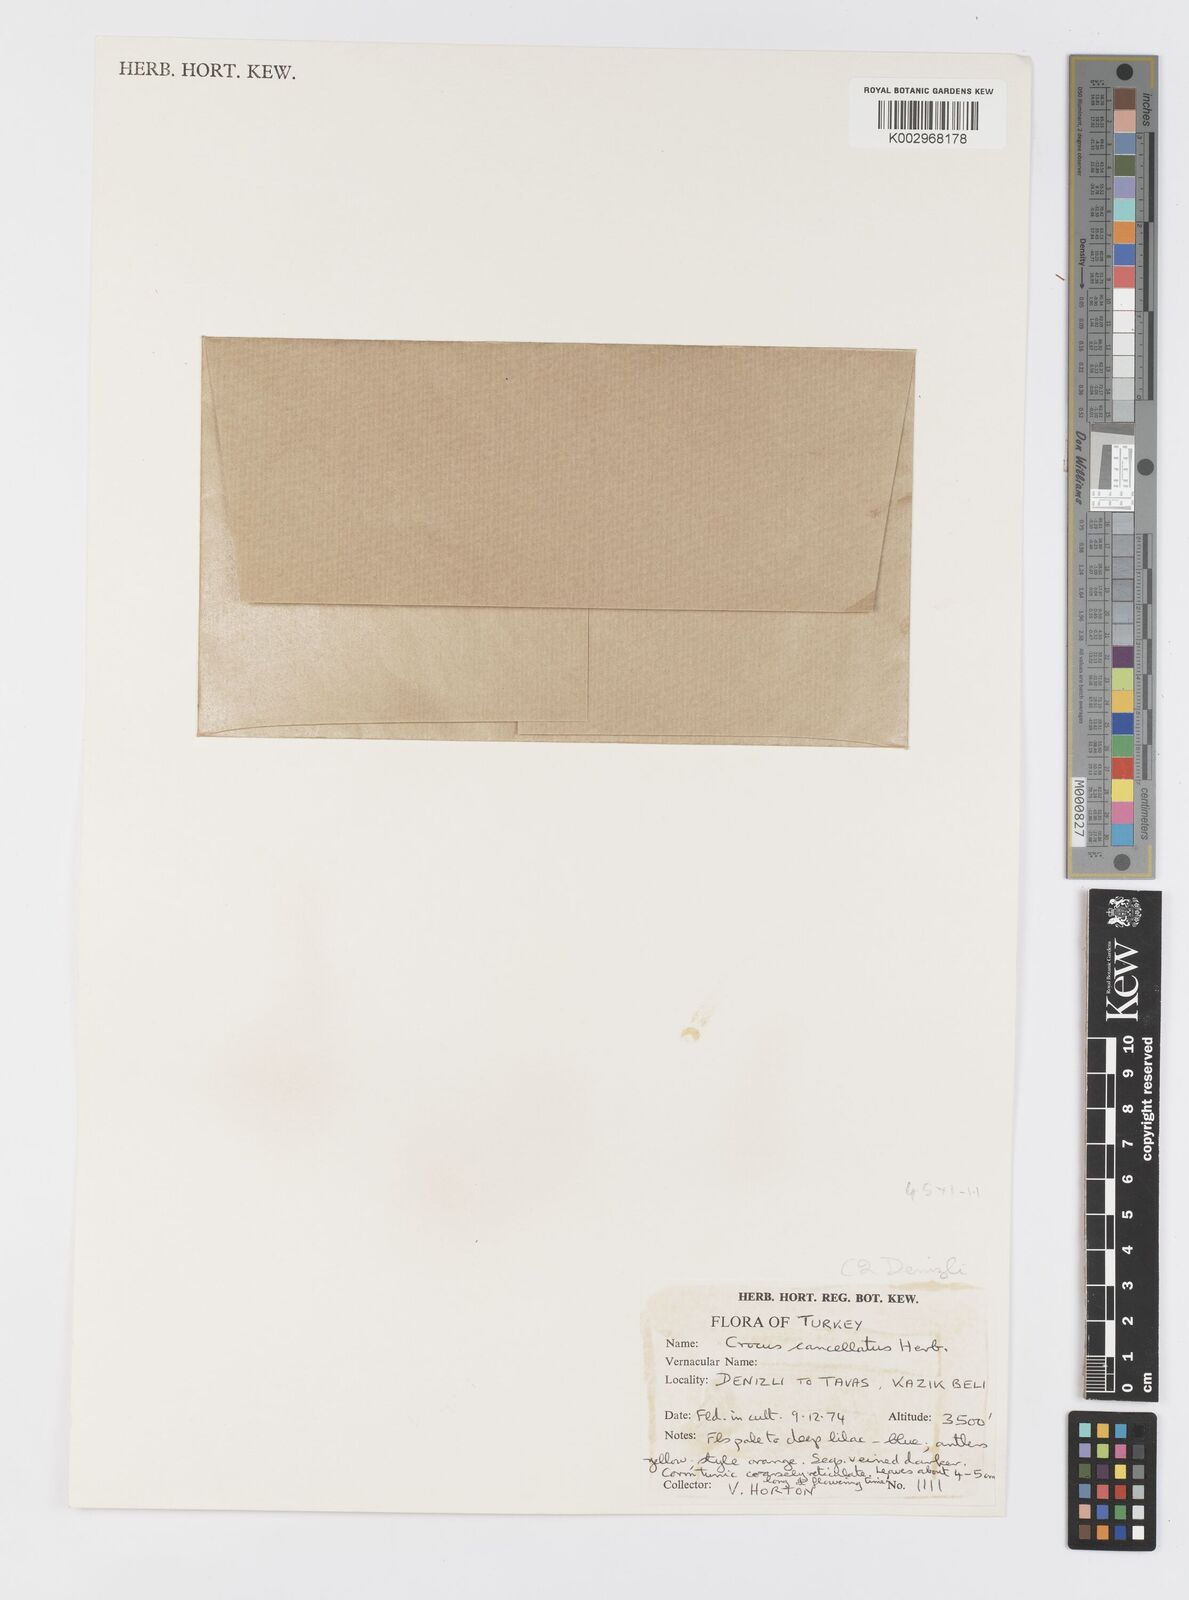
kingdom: Plantae
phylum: Tracheophyta
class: Liliopsida
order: Asparagales
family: Iridaceae
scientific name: Iridaceae
